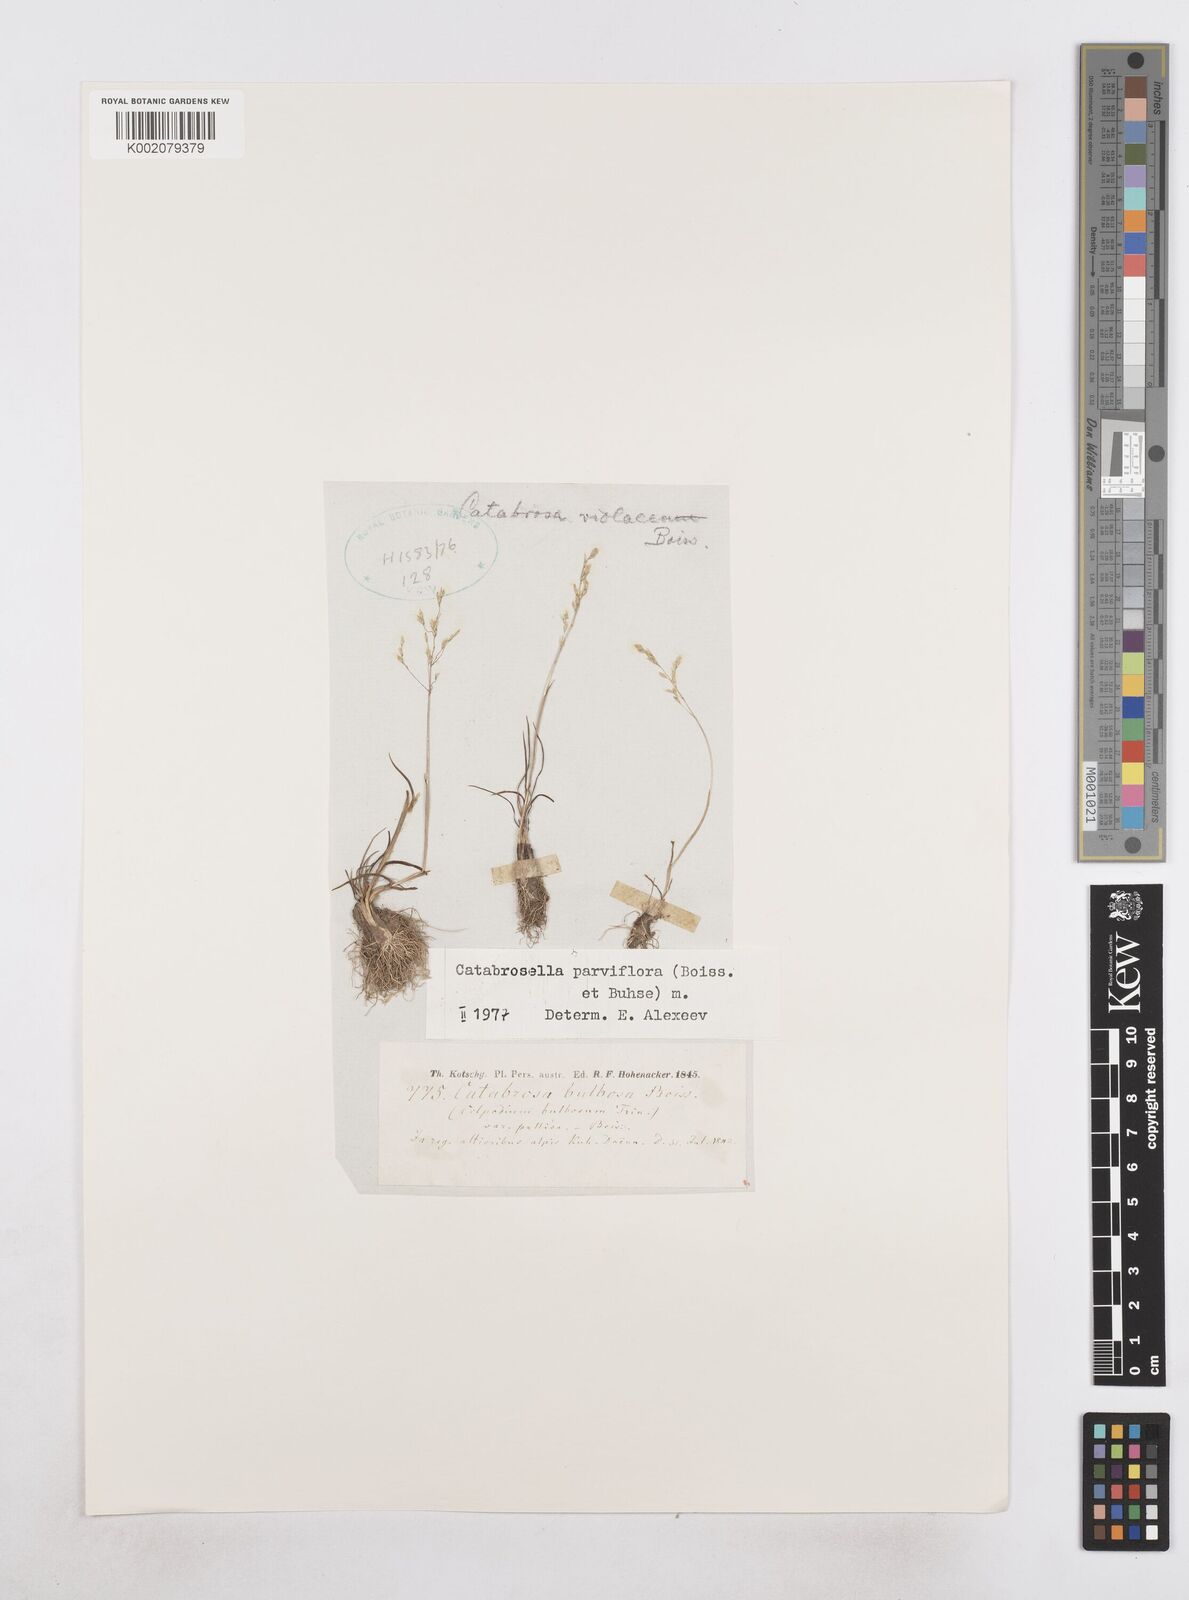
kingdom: Plantae
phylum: Tracheophyta
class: Liliopsida
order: Poales
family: Poaceae
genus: Catabrosella
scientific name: Catabrosella humilis
